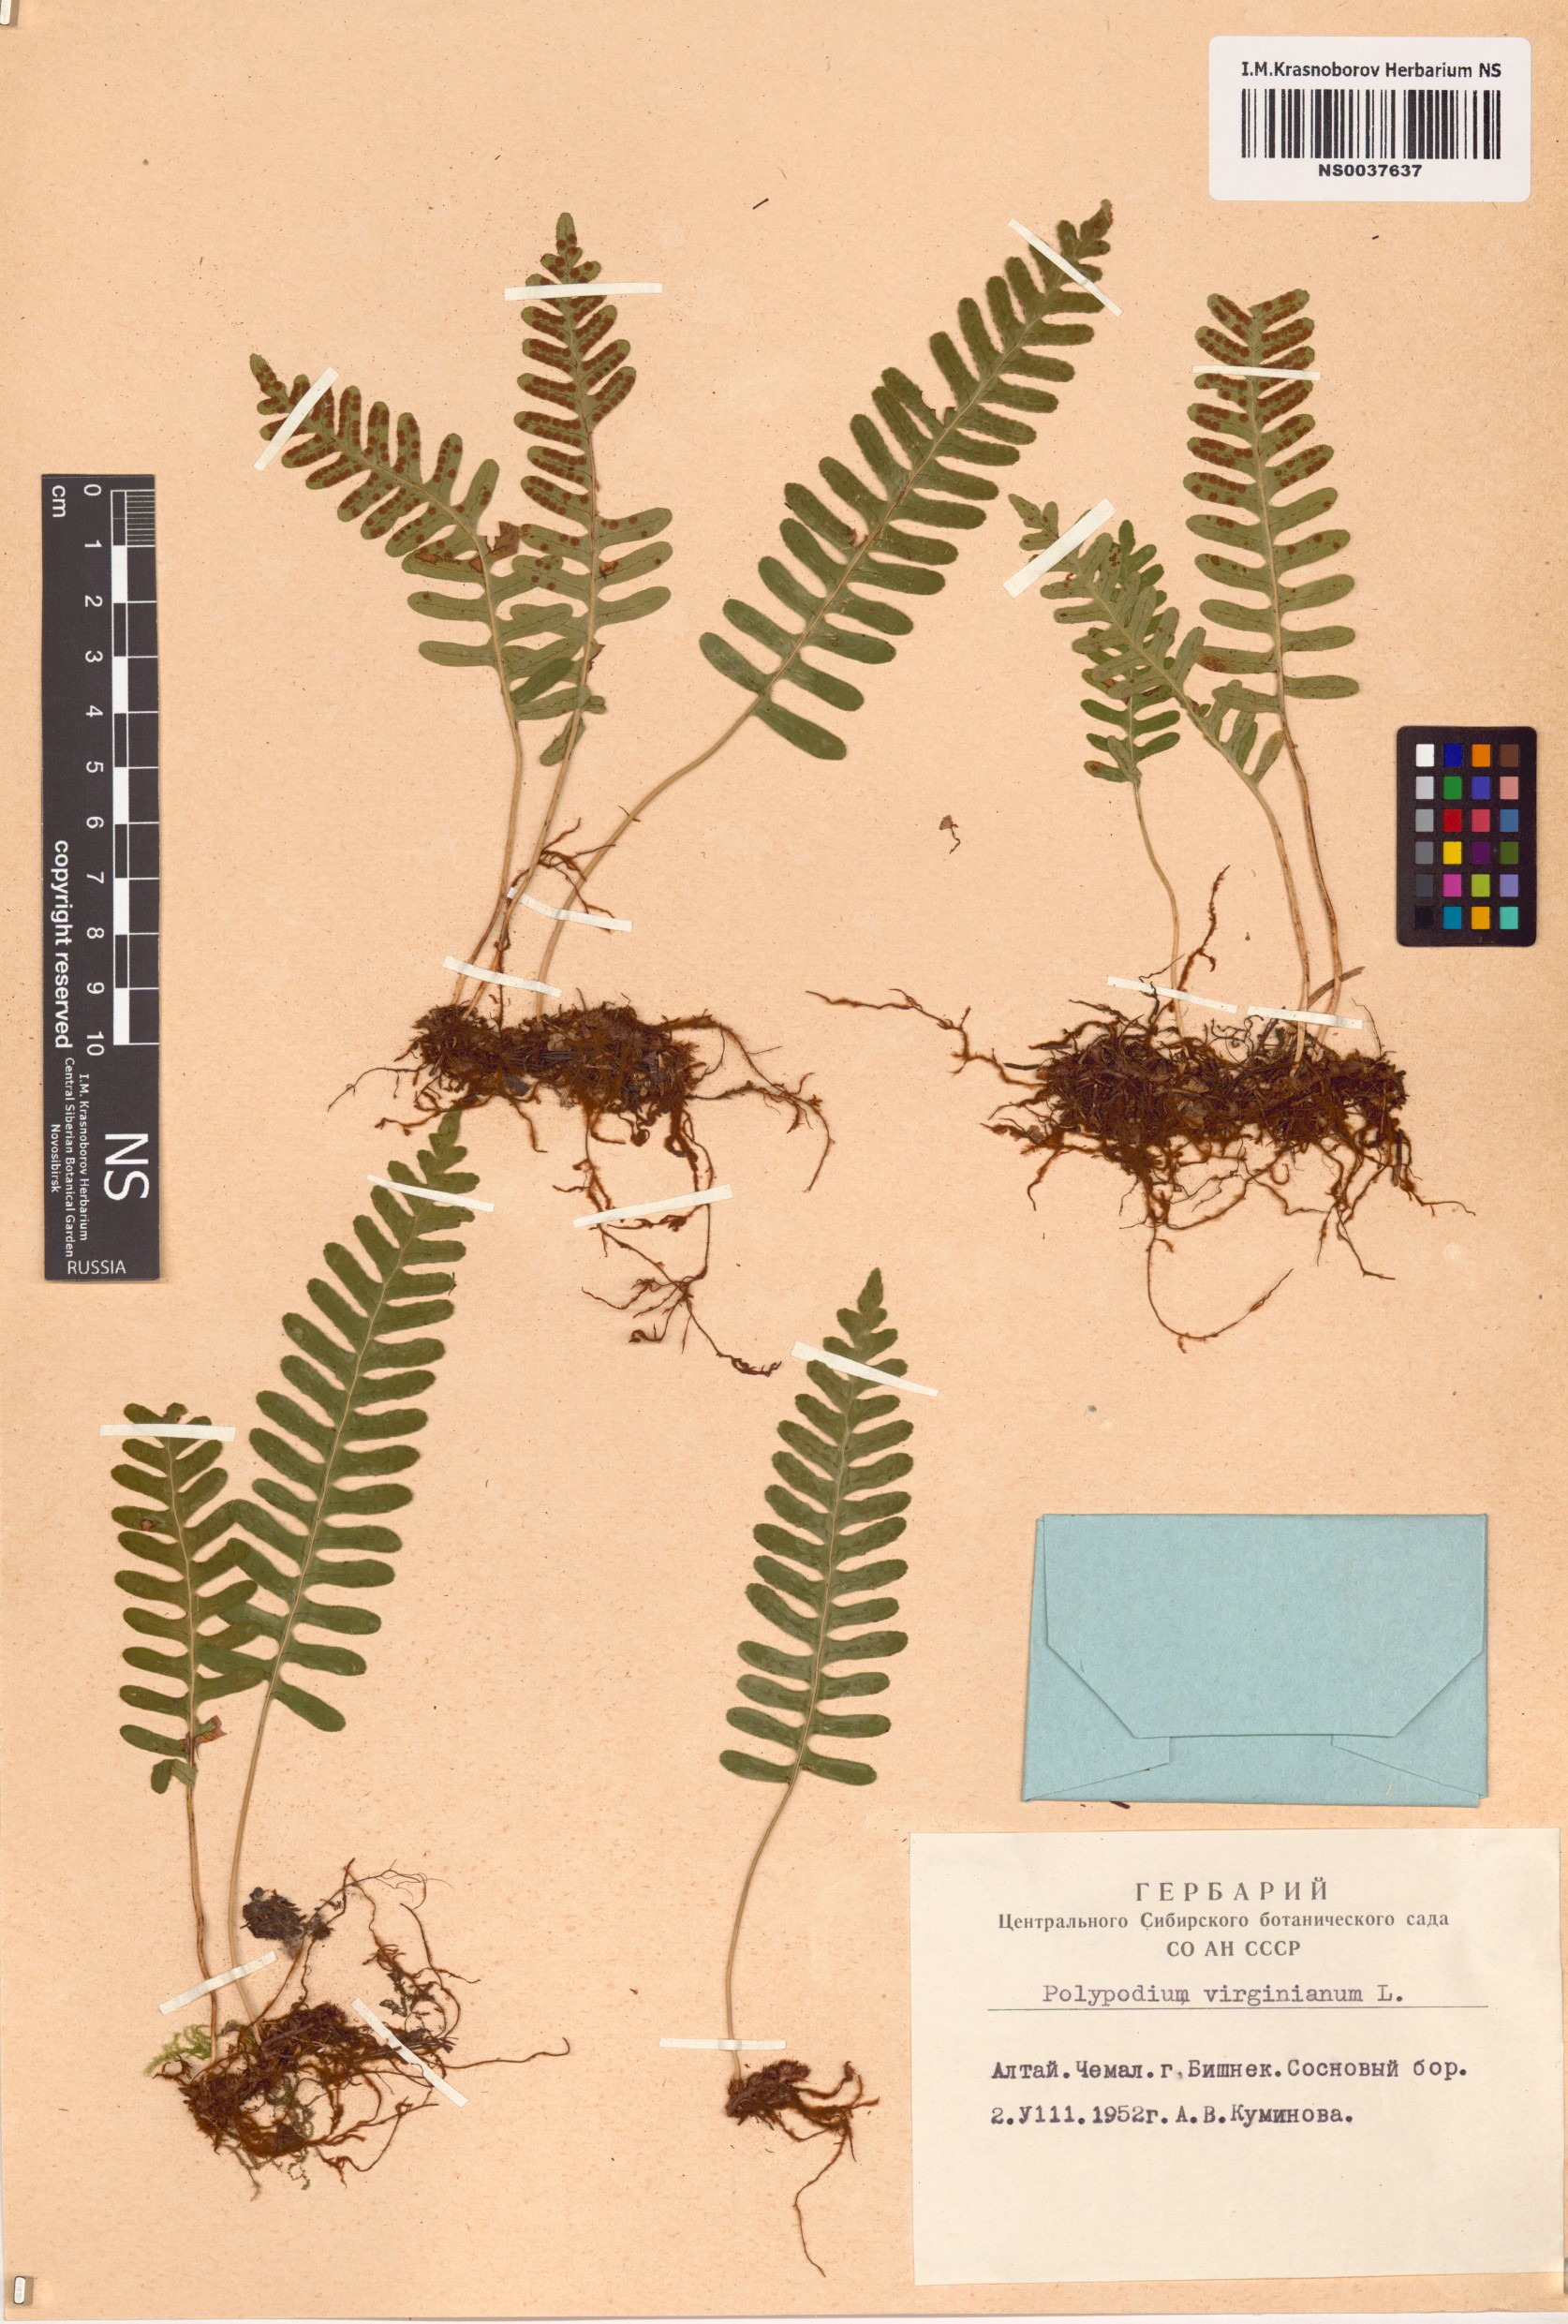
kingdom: Plantae
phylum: Tracheophyta
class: Polypodiopsida
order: Polypodiales
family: Polypodiaceae
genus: Polypodium
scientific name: Polypodium virginianum
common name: American wall fern
